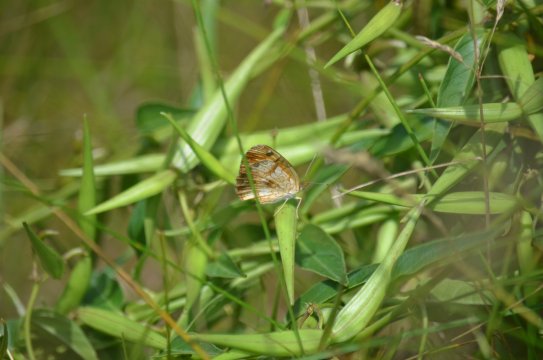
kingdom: Animalia
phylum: Arthropoda
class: Insecta
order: Lepidoptera
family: Nymphalidae
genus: Phyciodes
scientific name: Phyciodes tharos
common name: Northern Crescent
